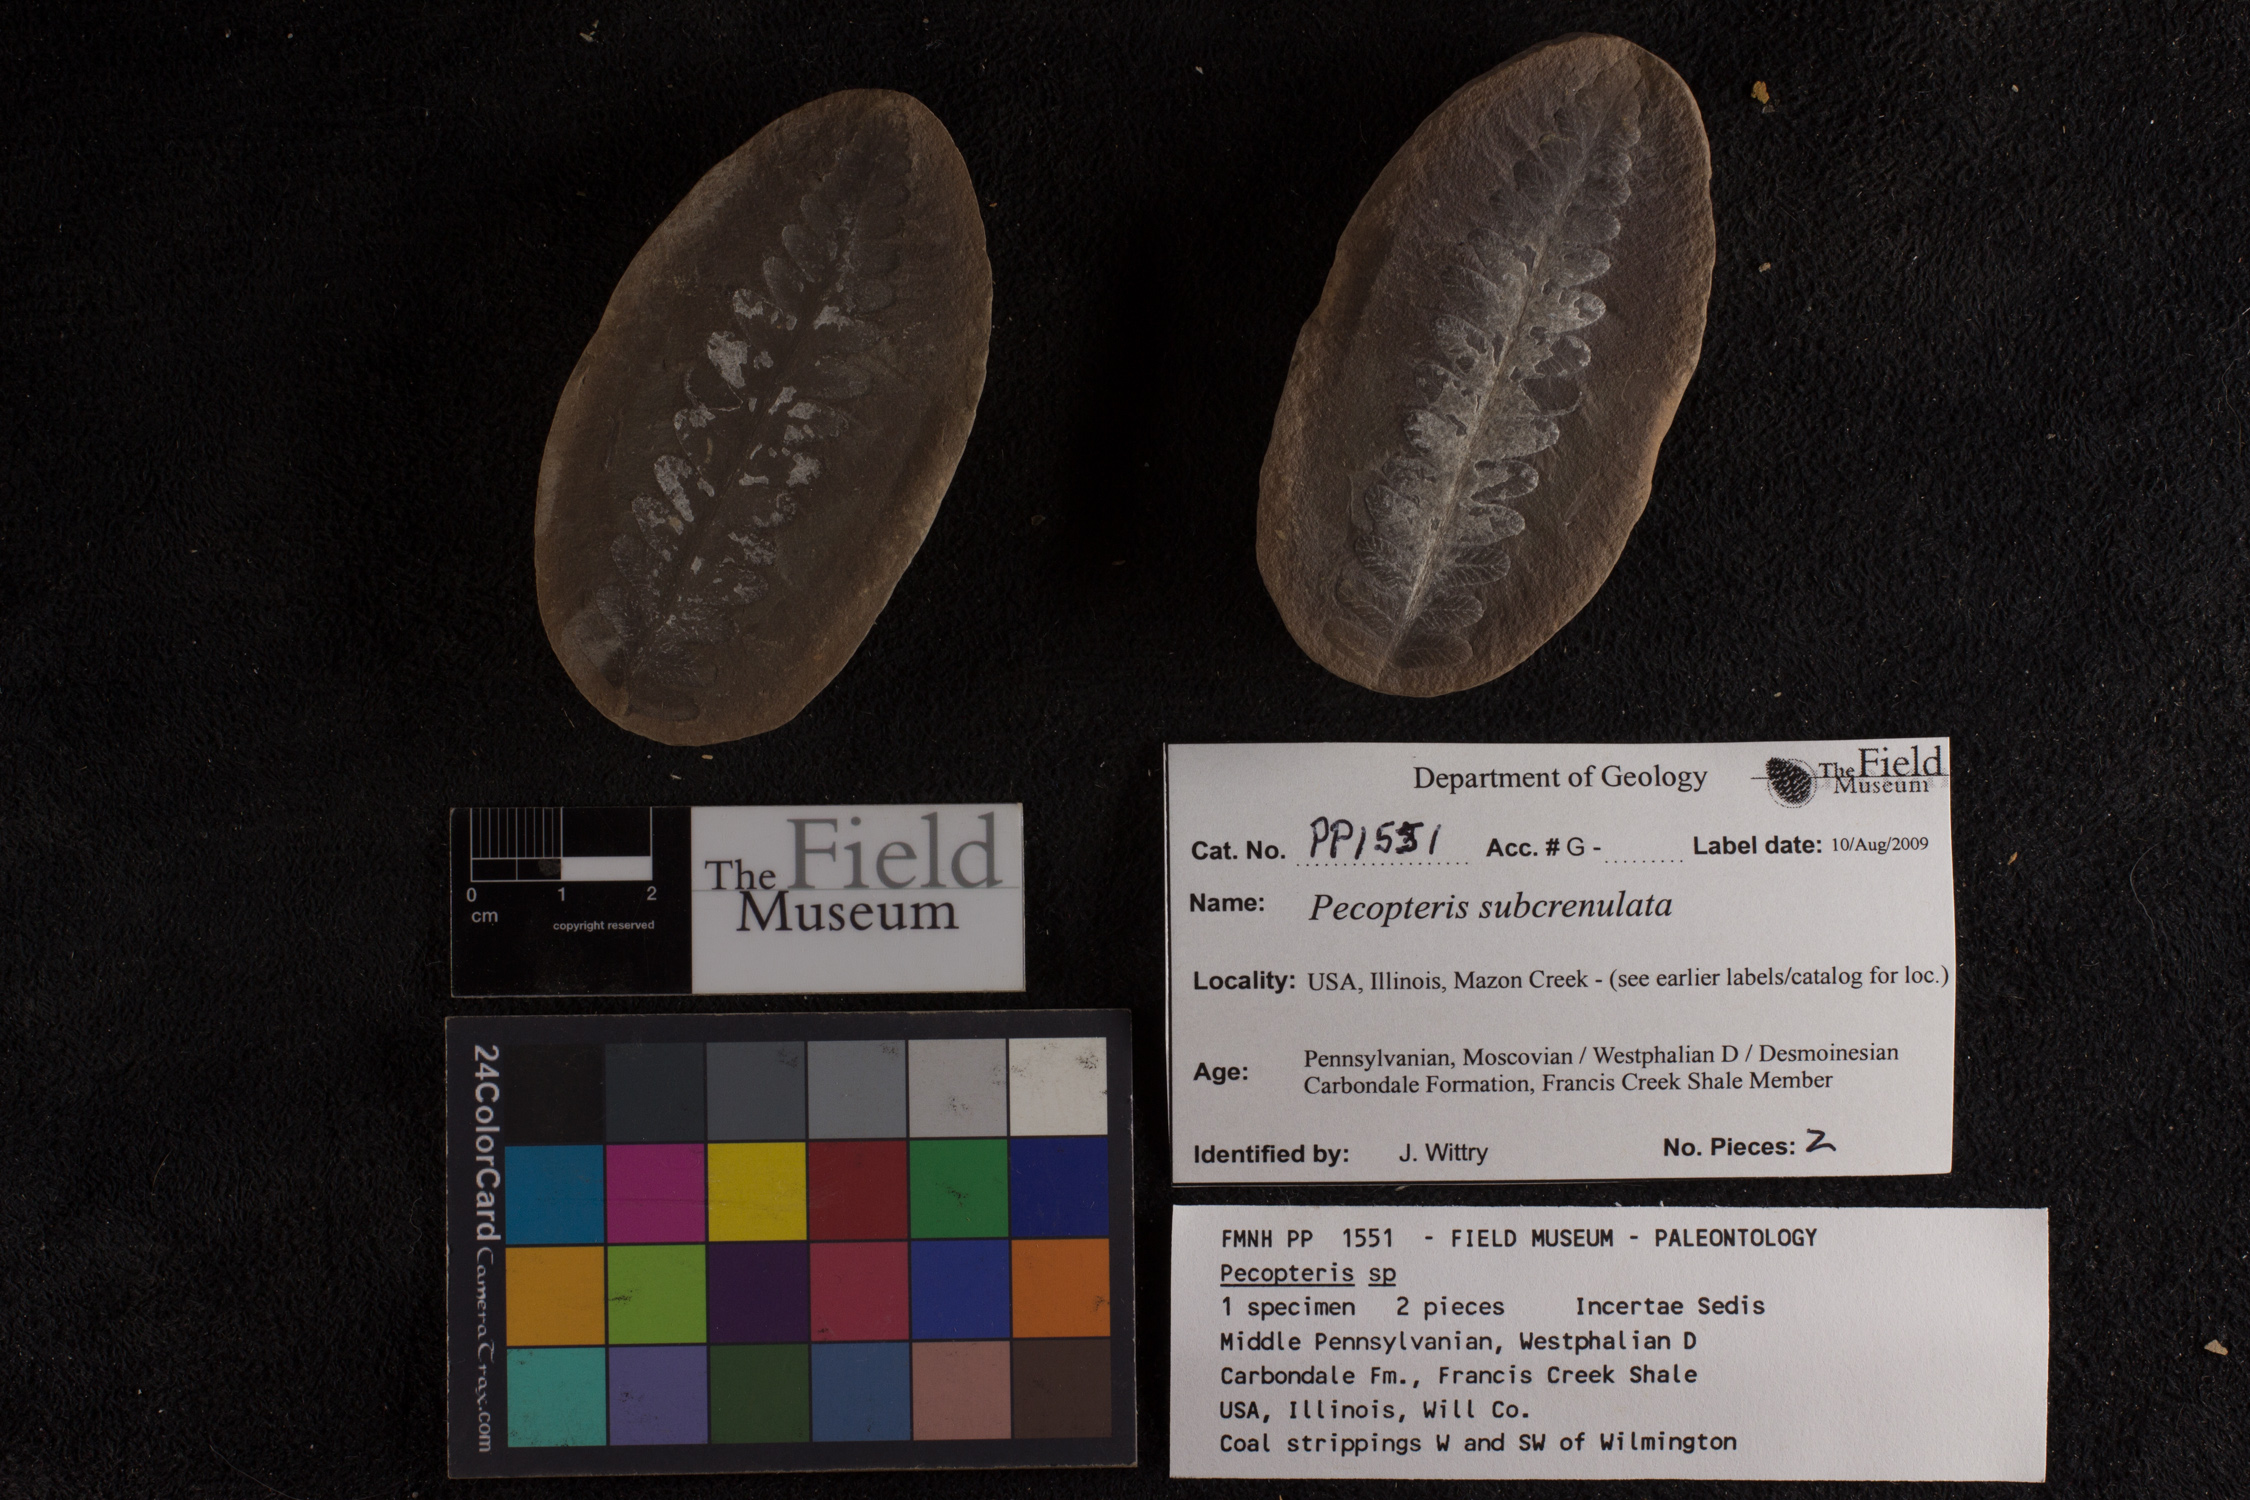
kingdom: Plantae
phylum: Tracheophyta
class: Polypodiopsida
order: Marattiales
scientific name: Marattiales
